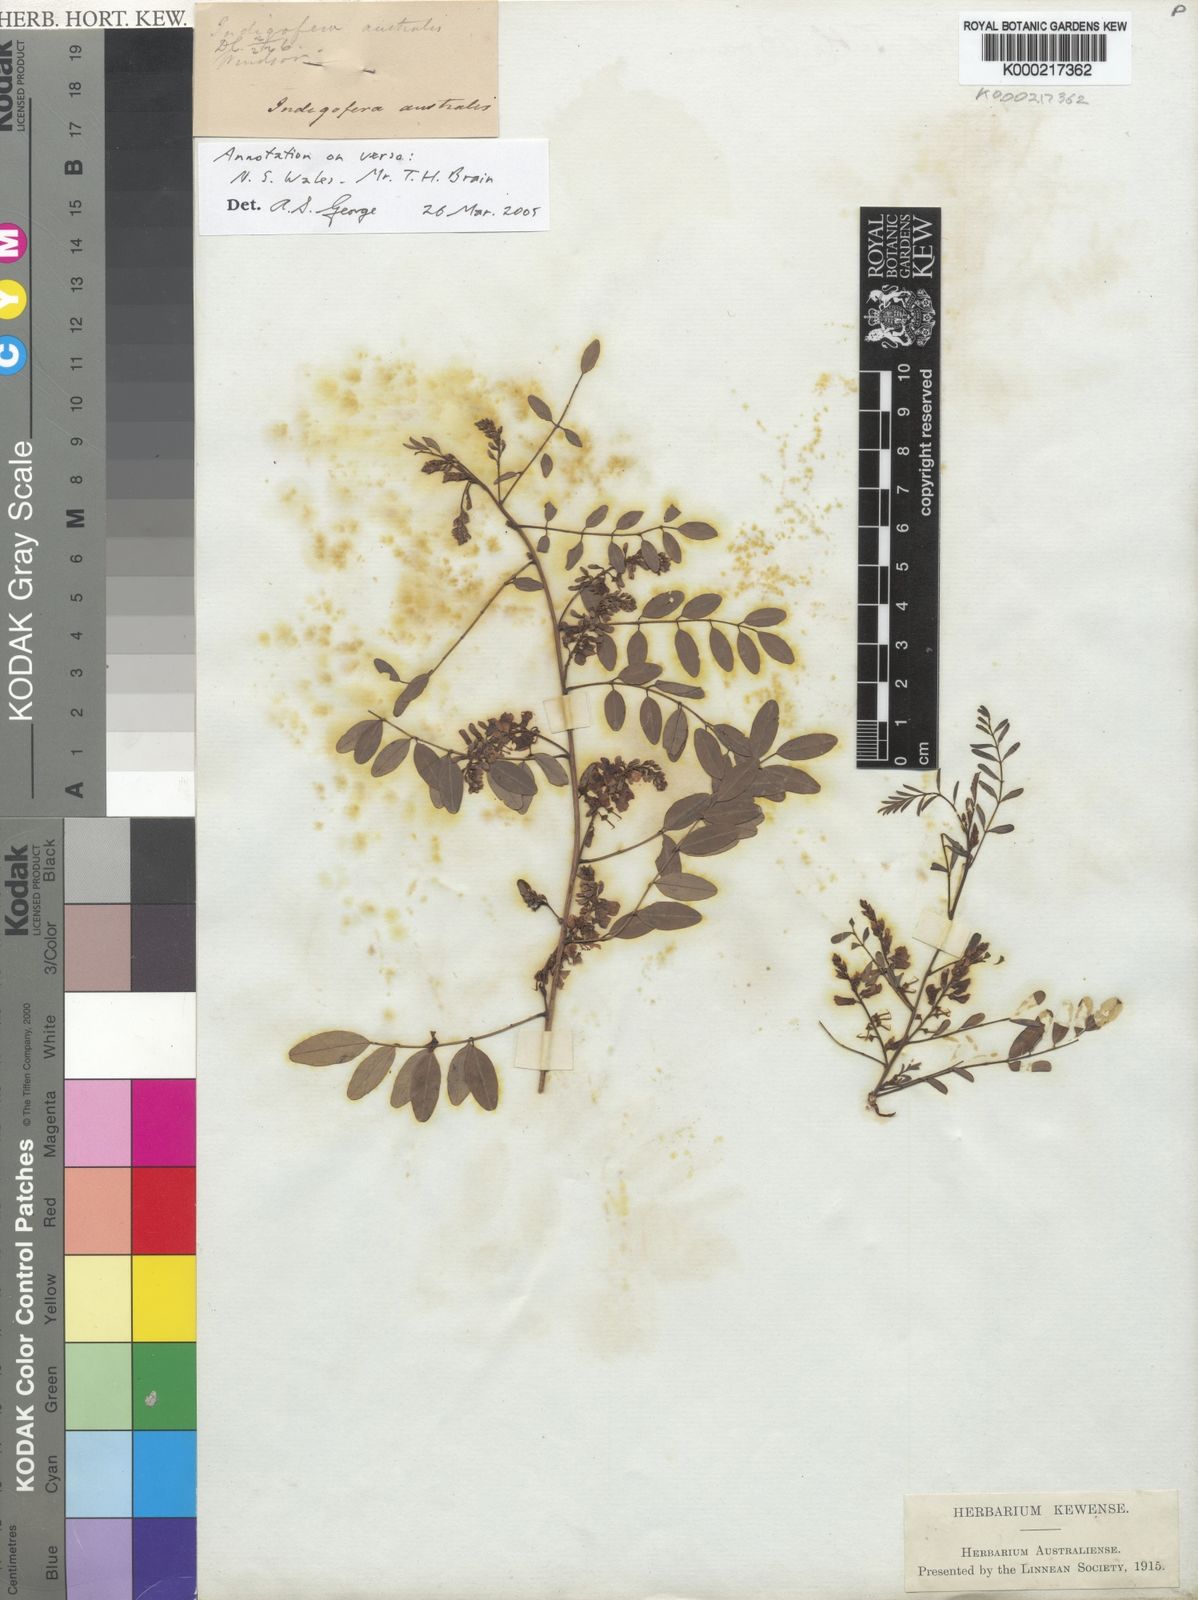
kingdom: Plantae
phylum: Tracheophyta
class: Magnoliopsida
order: Fabales
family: Fabaceae
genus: Indigofera
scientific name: Indigofera australis
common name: Australian indigo
